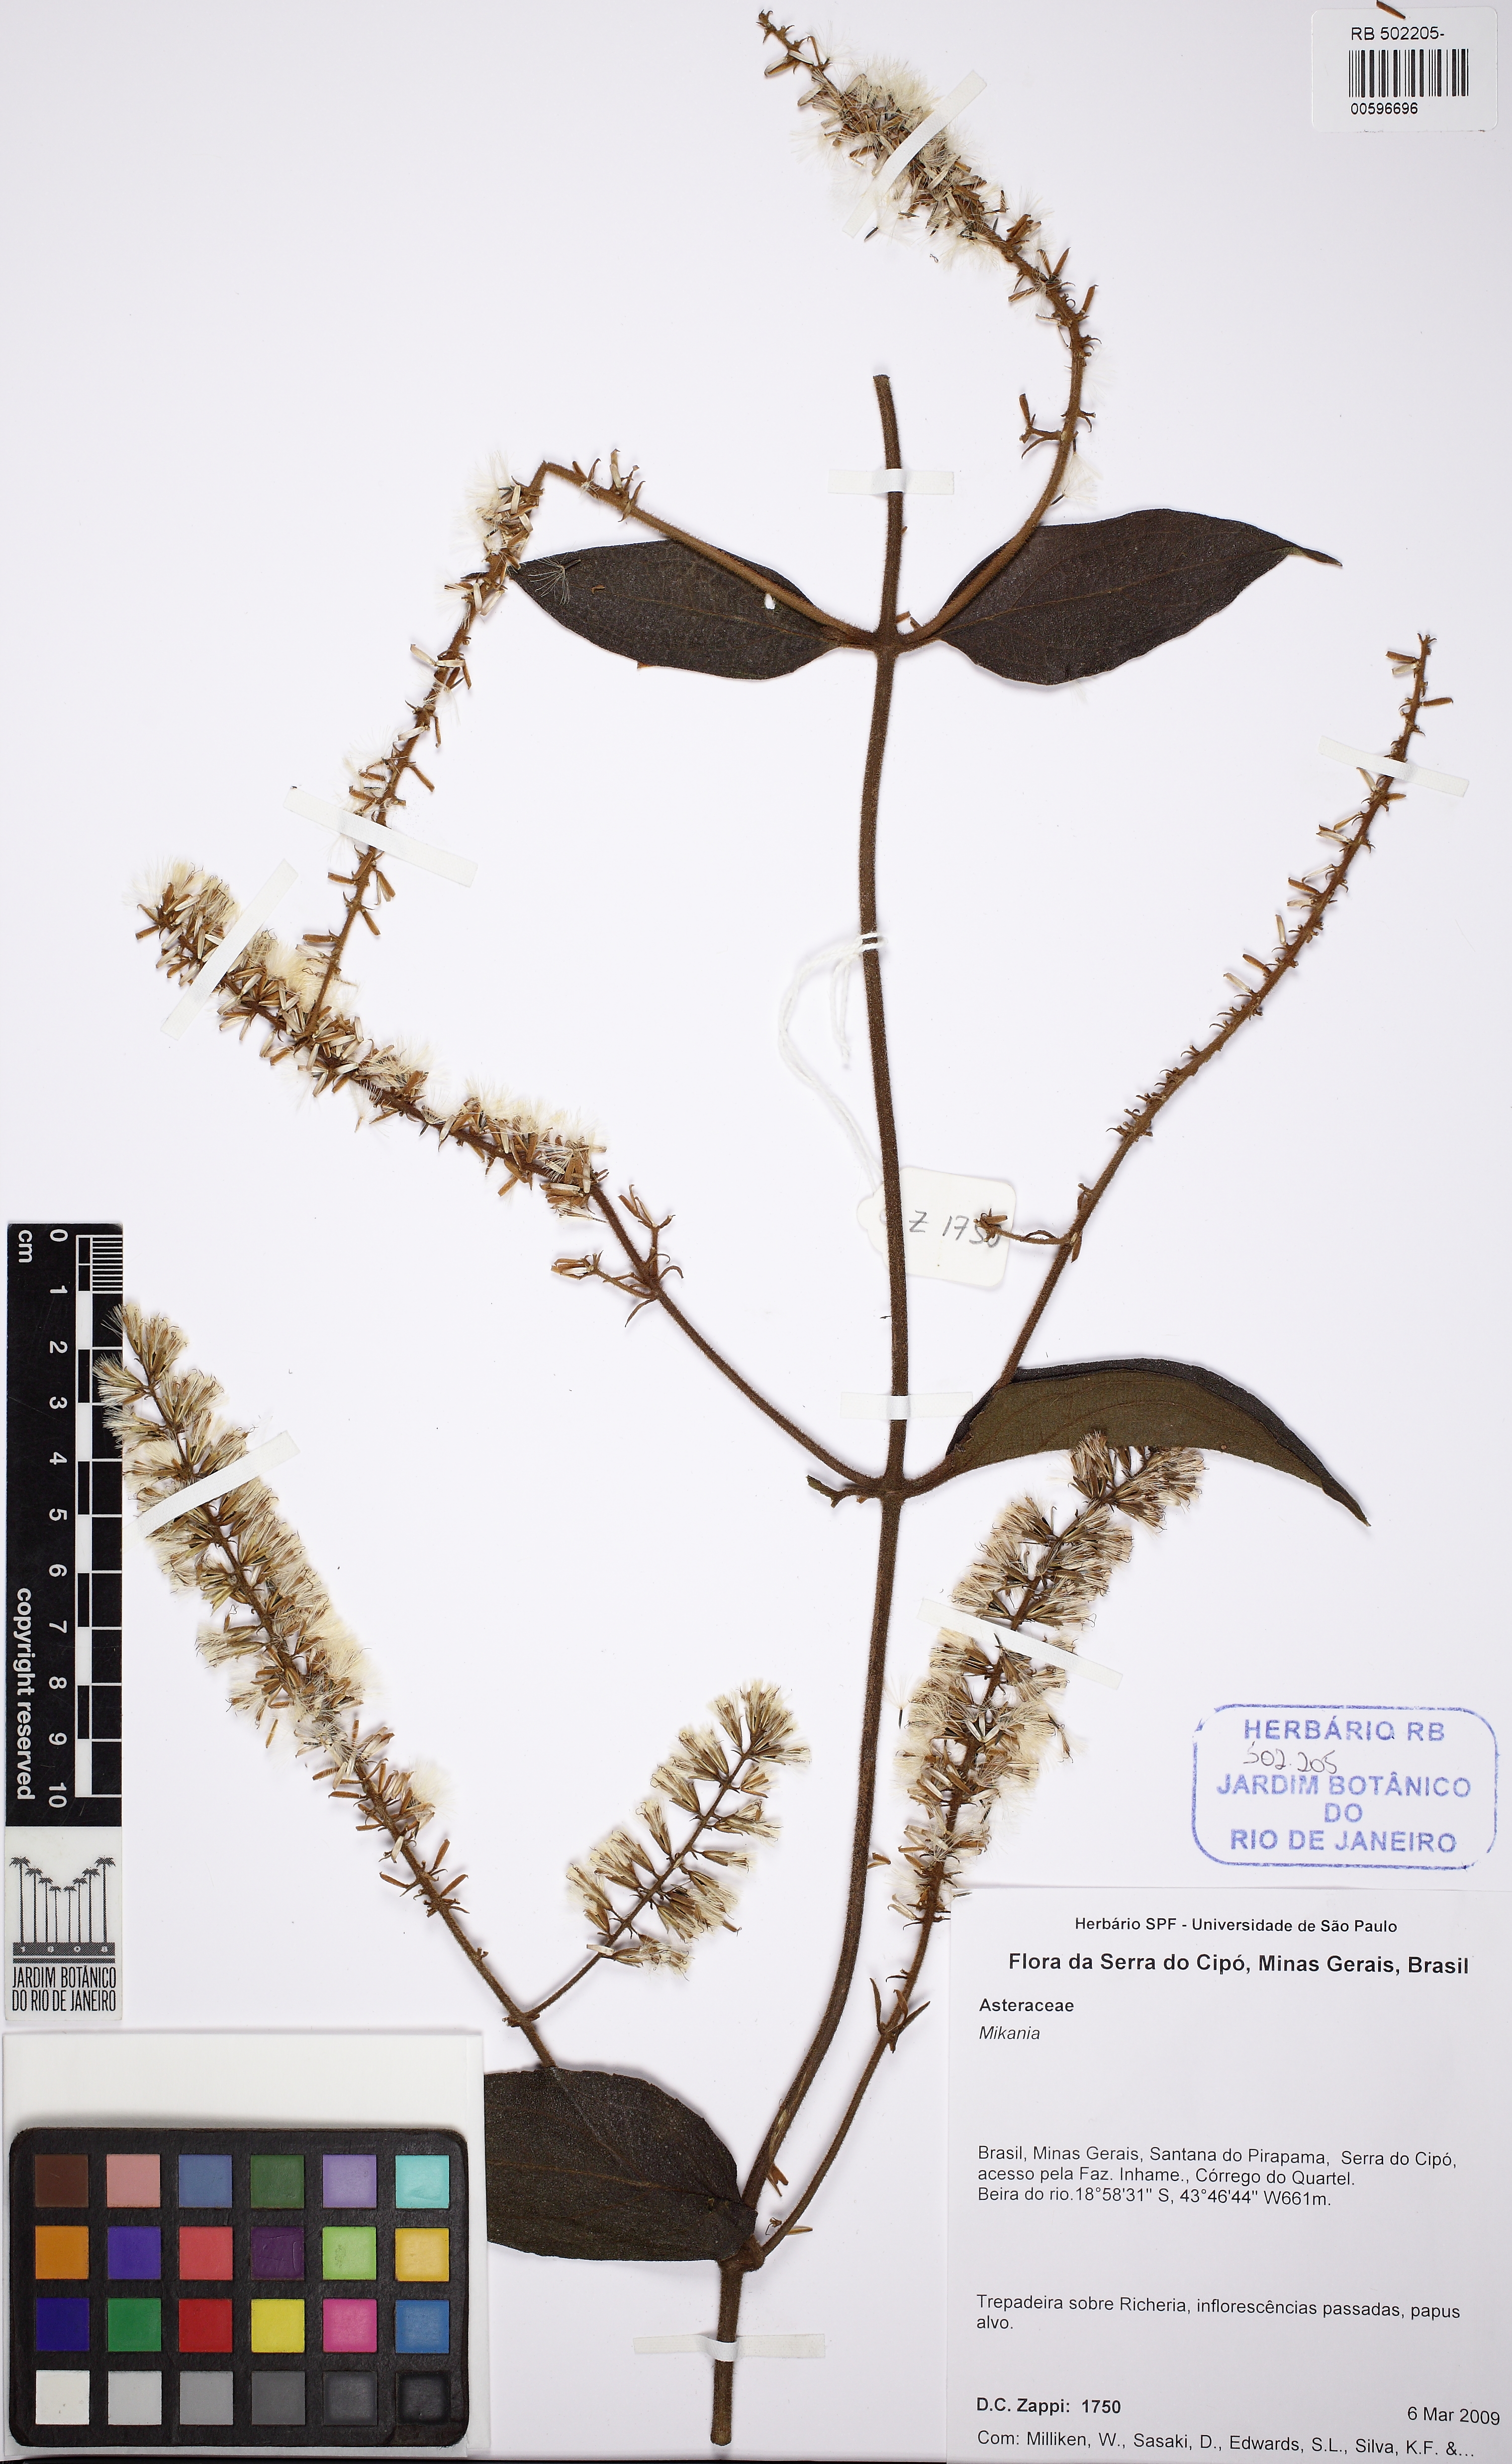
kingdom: Plantae
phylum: Tracheophyta
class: Magnoliopsida
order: Asterales
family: Asteraceae
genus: Mikania
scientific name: Mikania
